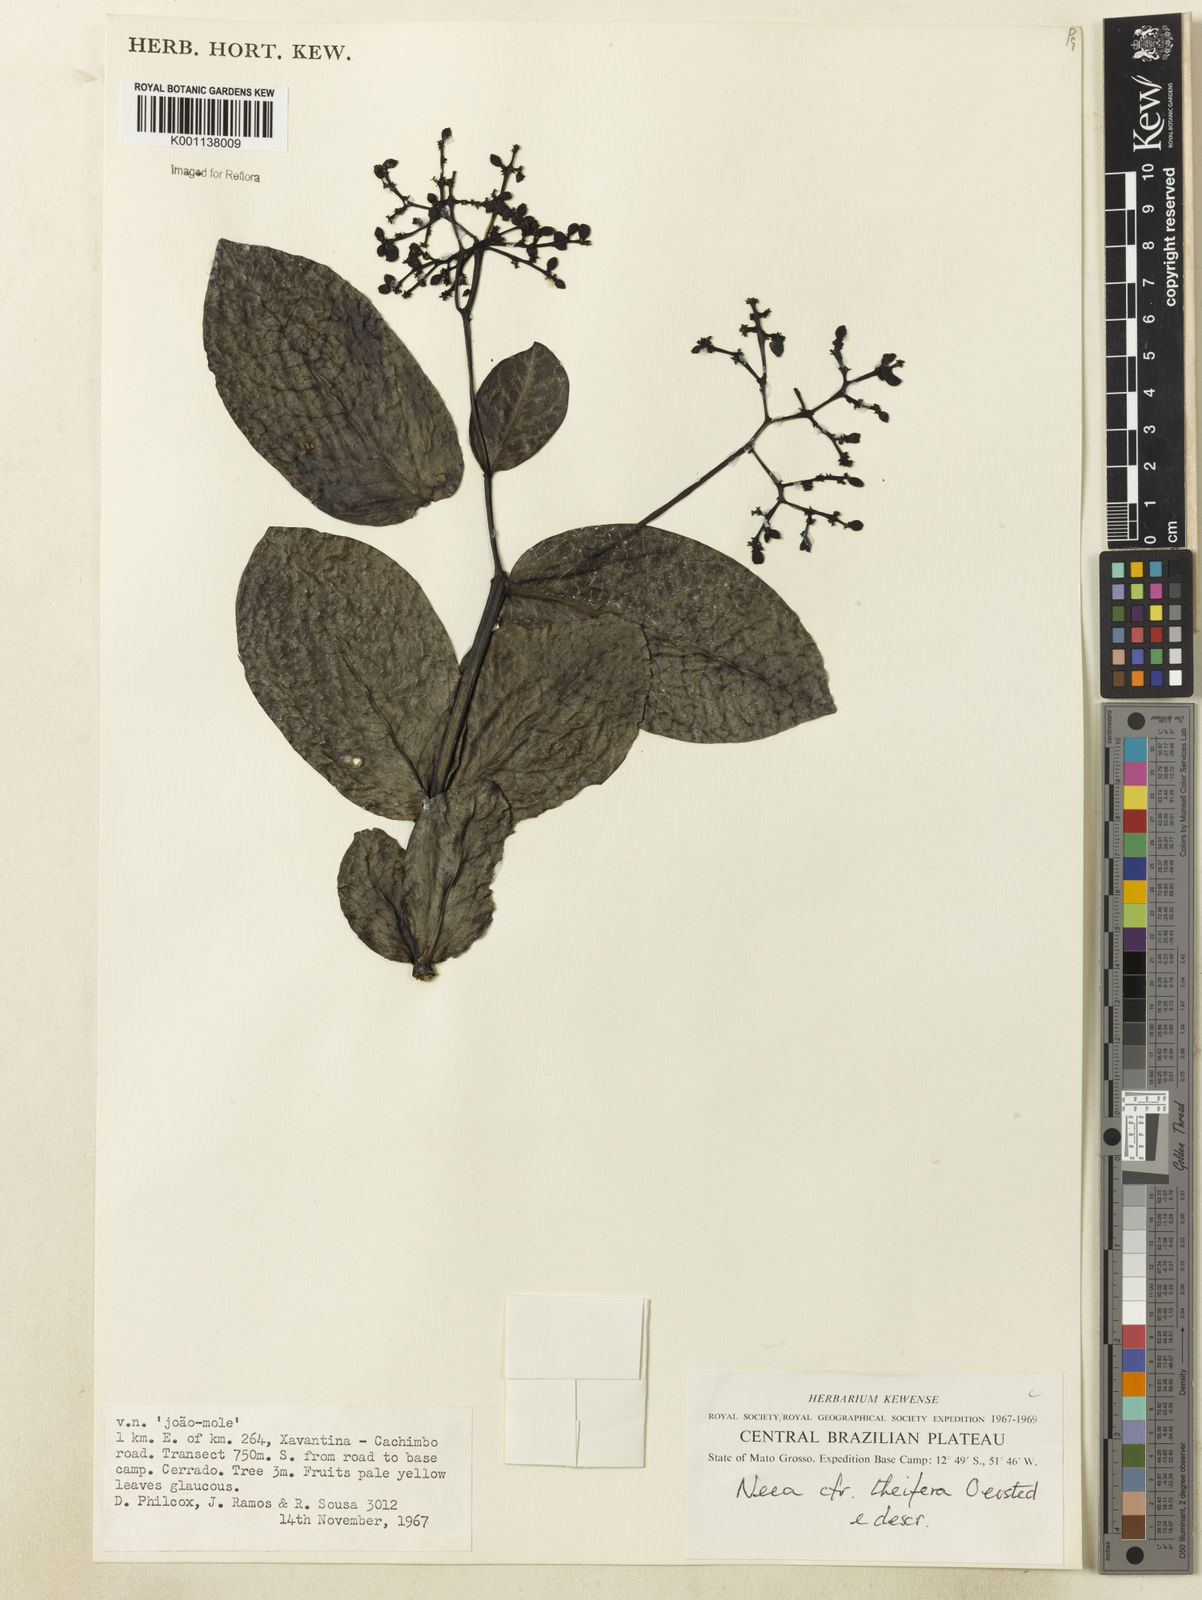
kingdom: Plantae
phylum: Tracheophyta
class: Magnoliopsida
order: Caryophyllales
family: Nyctaginaceae
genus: Neea
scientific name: Neea theifera
